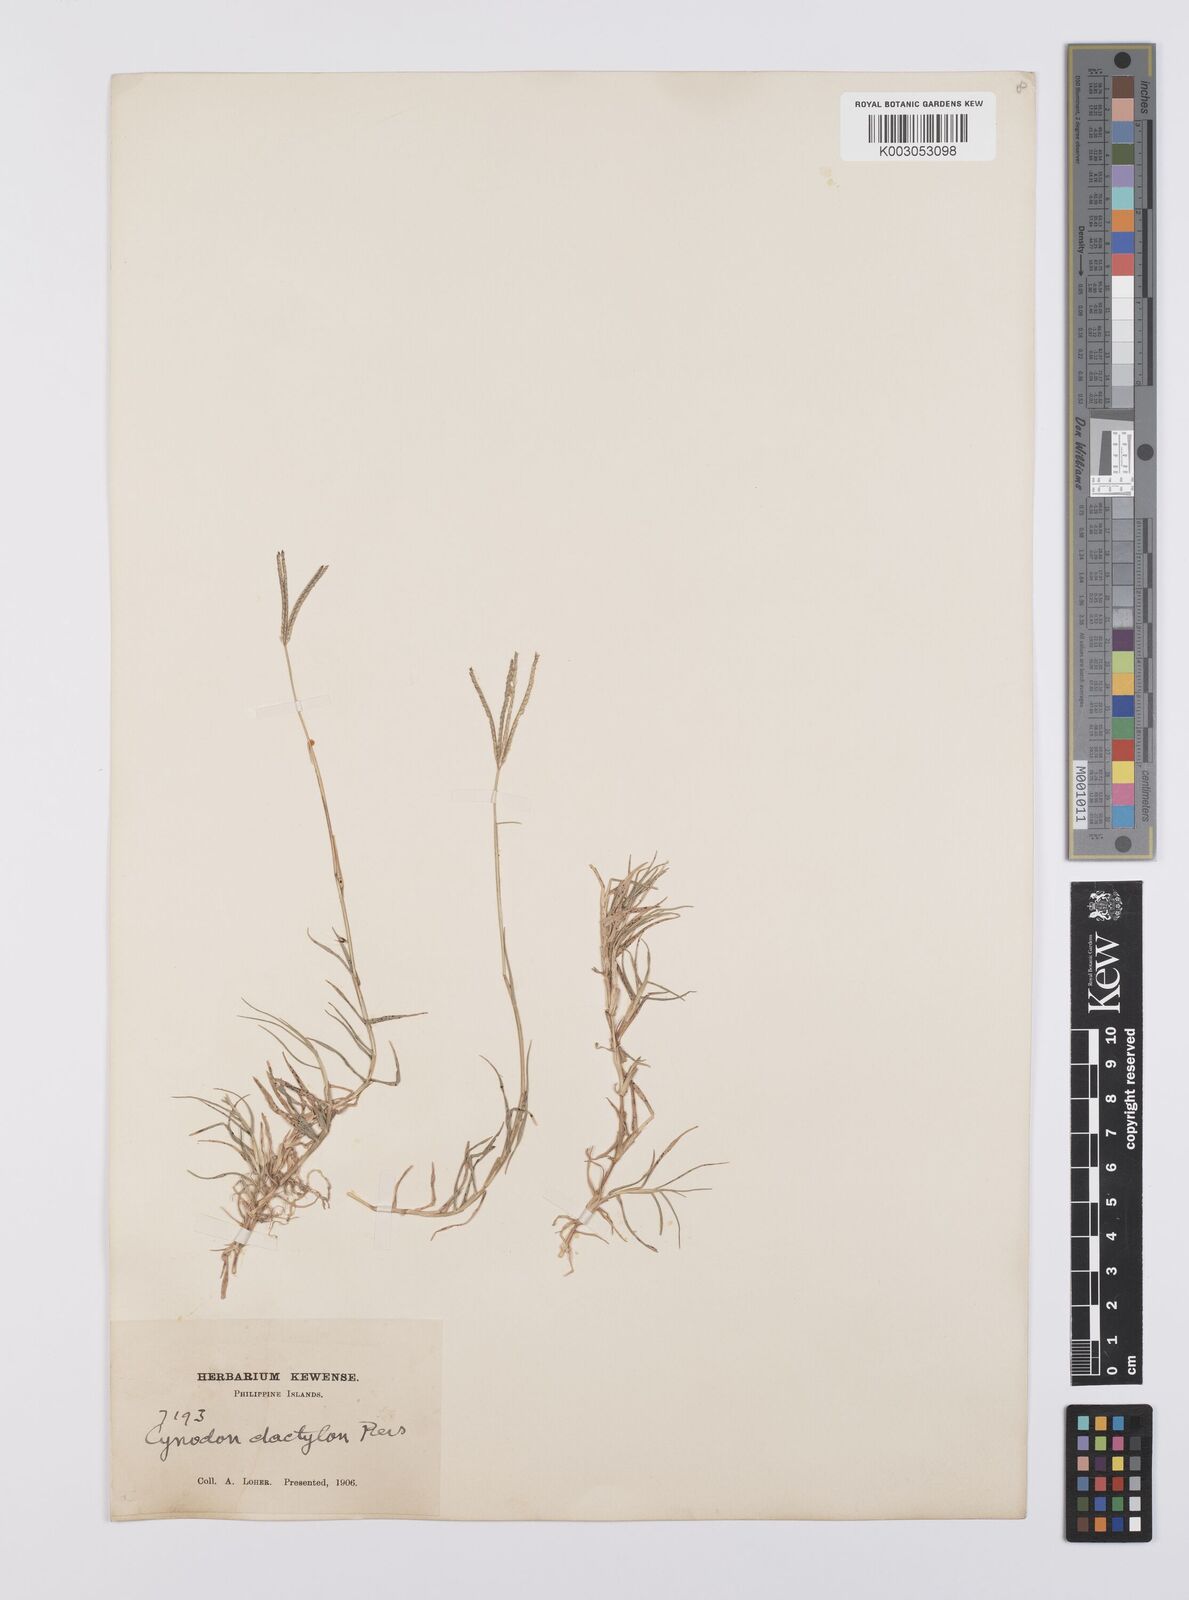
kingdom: Plantae
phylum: Tracheophyta
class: Liliopsida
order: Poales
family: Poaceae
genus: Cynodon
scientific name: Cynodon dactylon
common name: Bermuda grass
